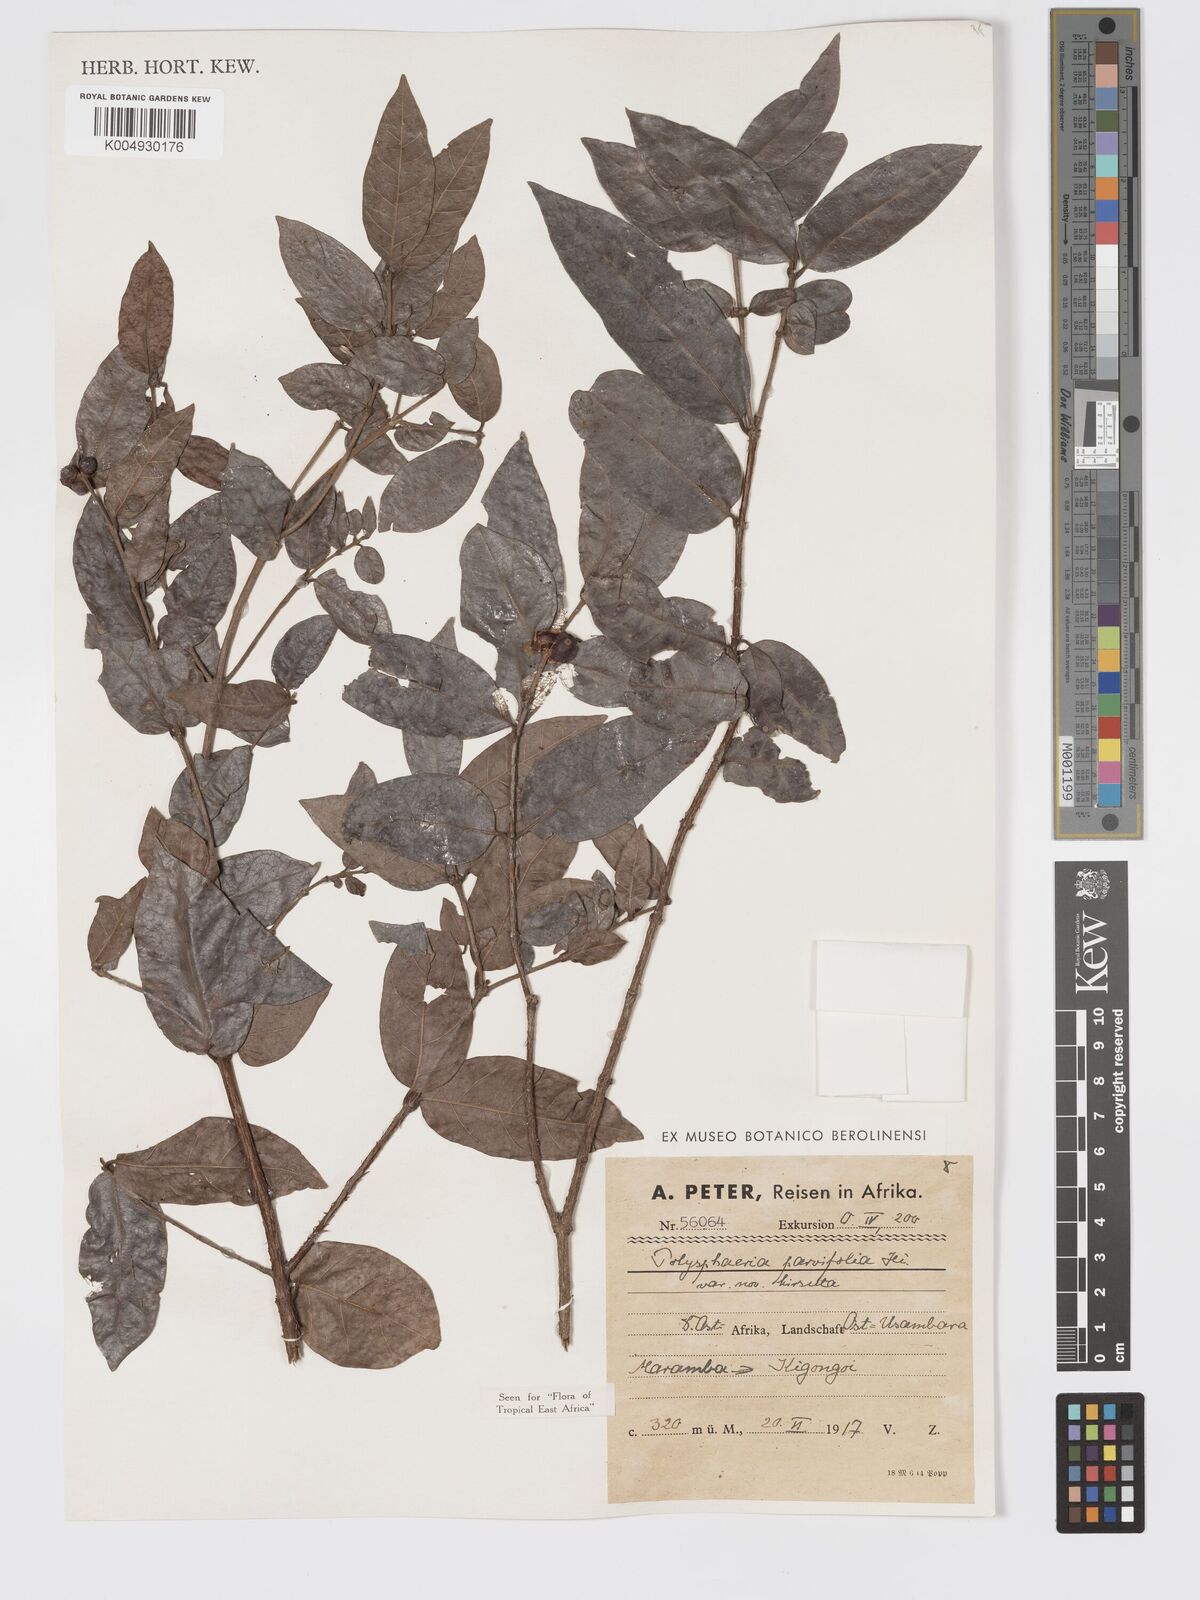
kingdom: Plantae
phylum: Tracheophyta
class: Magnoliopsida
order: Gentianales
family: Rubiaceae
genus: Polysphaeria
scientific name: Polysphaeria parvifolia
